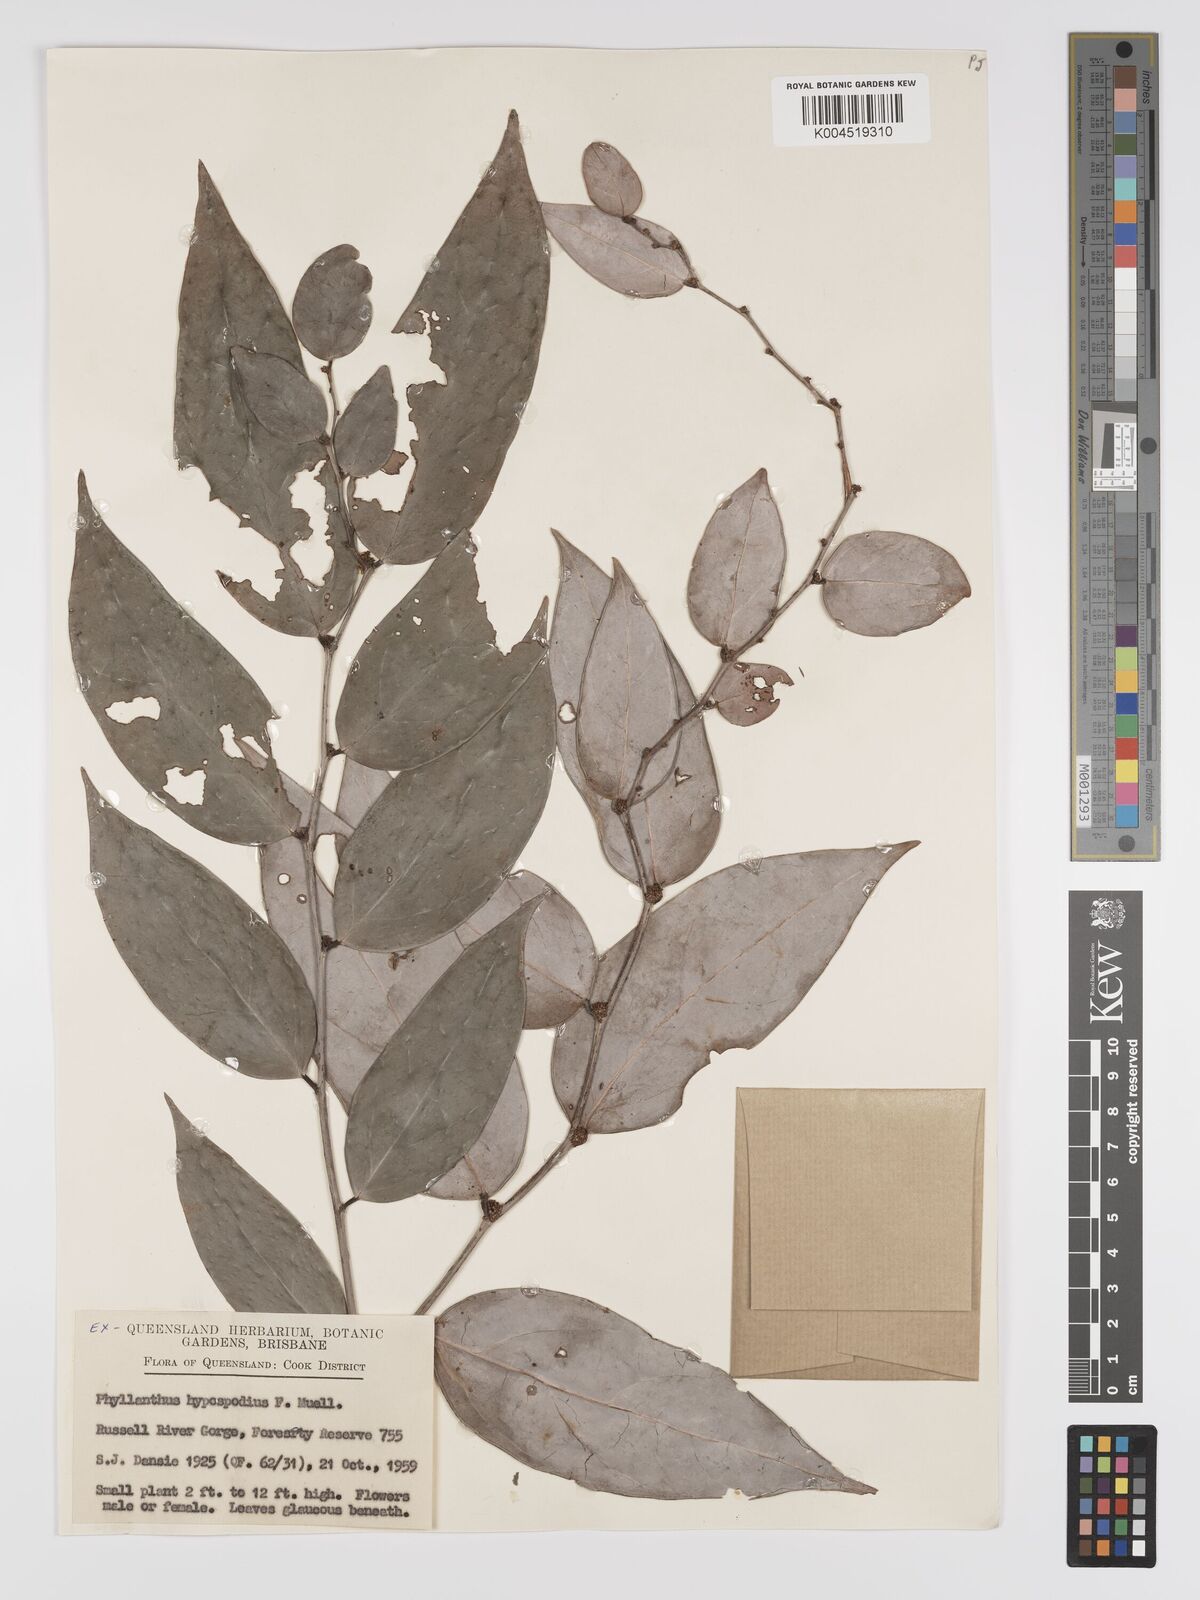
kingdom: Plantae
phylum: Tracheophyta
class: Magnoliopsida
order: Malpighiales
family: Phyllanthaceae
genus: Phyllanthus
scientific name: Phyllanthus hypospodius
